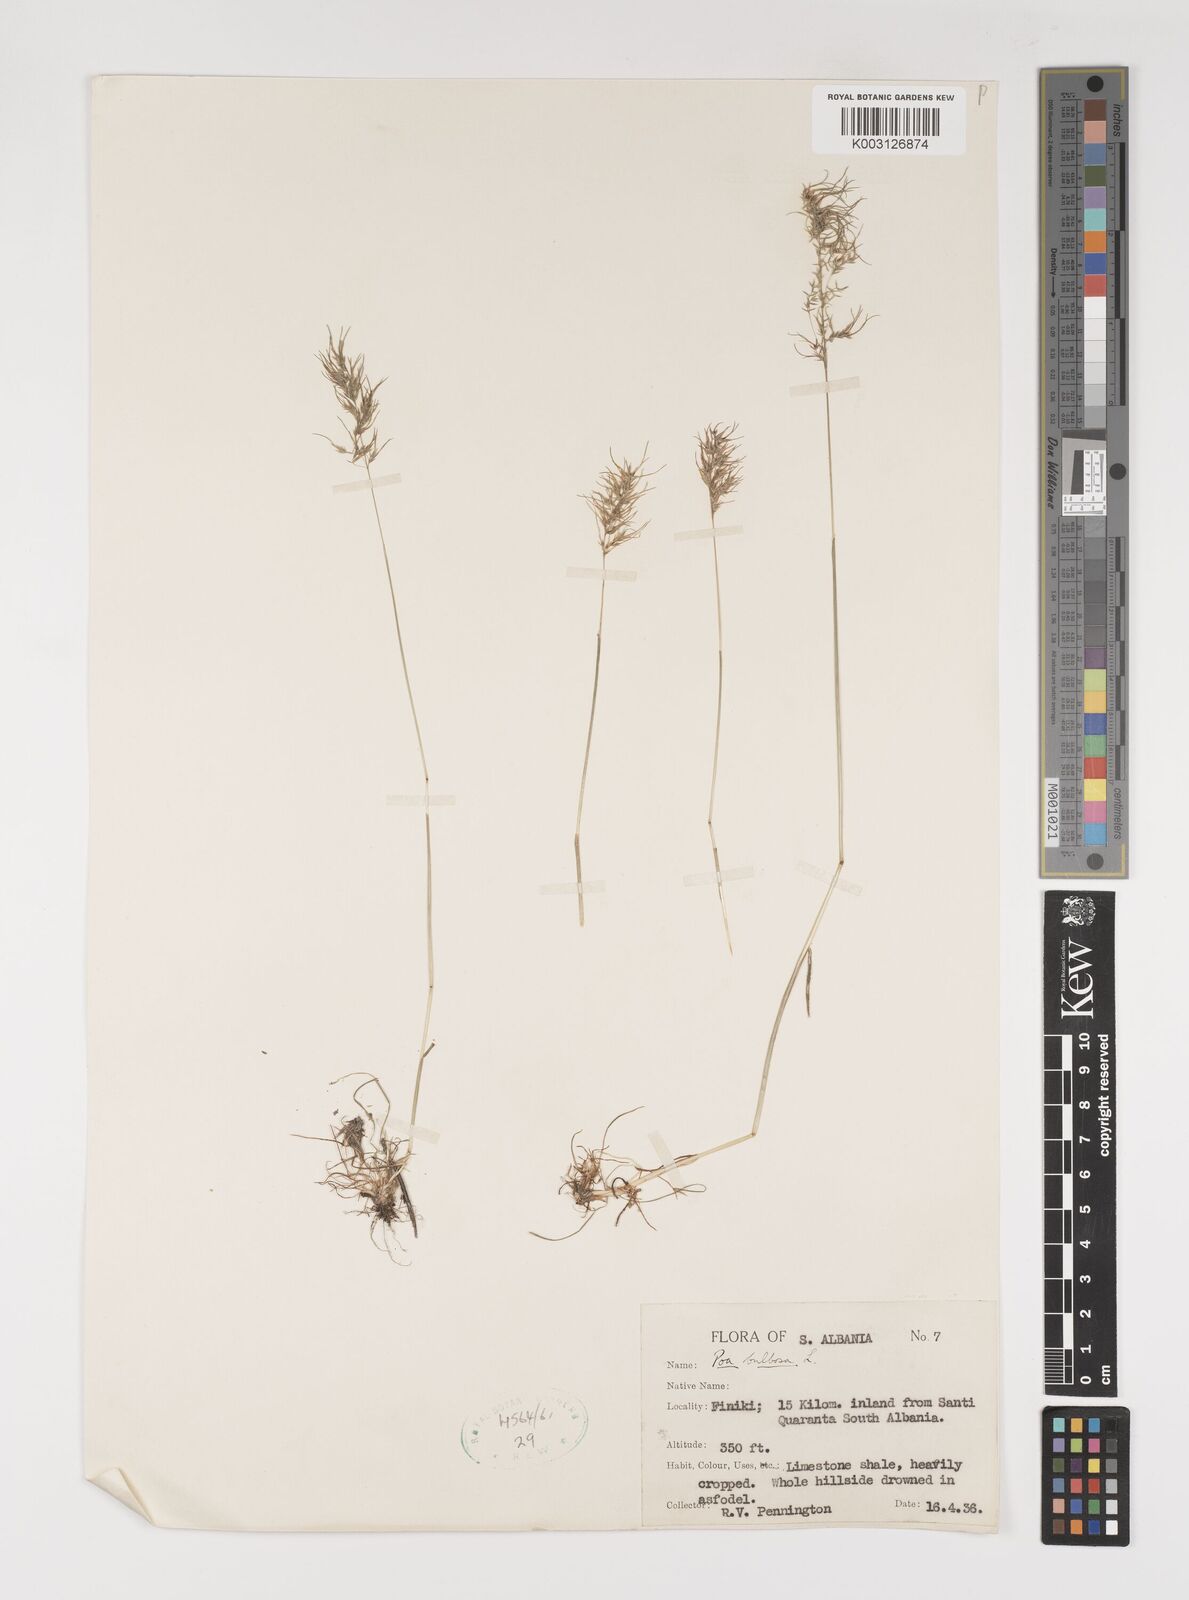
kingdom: Plantae
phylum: Tracheophyta
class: Liliopsida
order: Poales
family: Poaceae
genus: Poa
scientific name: Poa bulbosa
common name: Bulbous bluegrass
